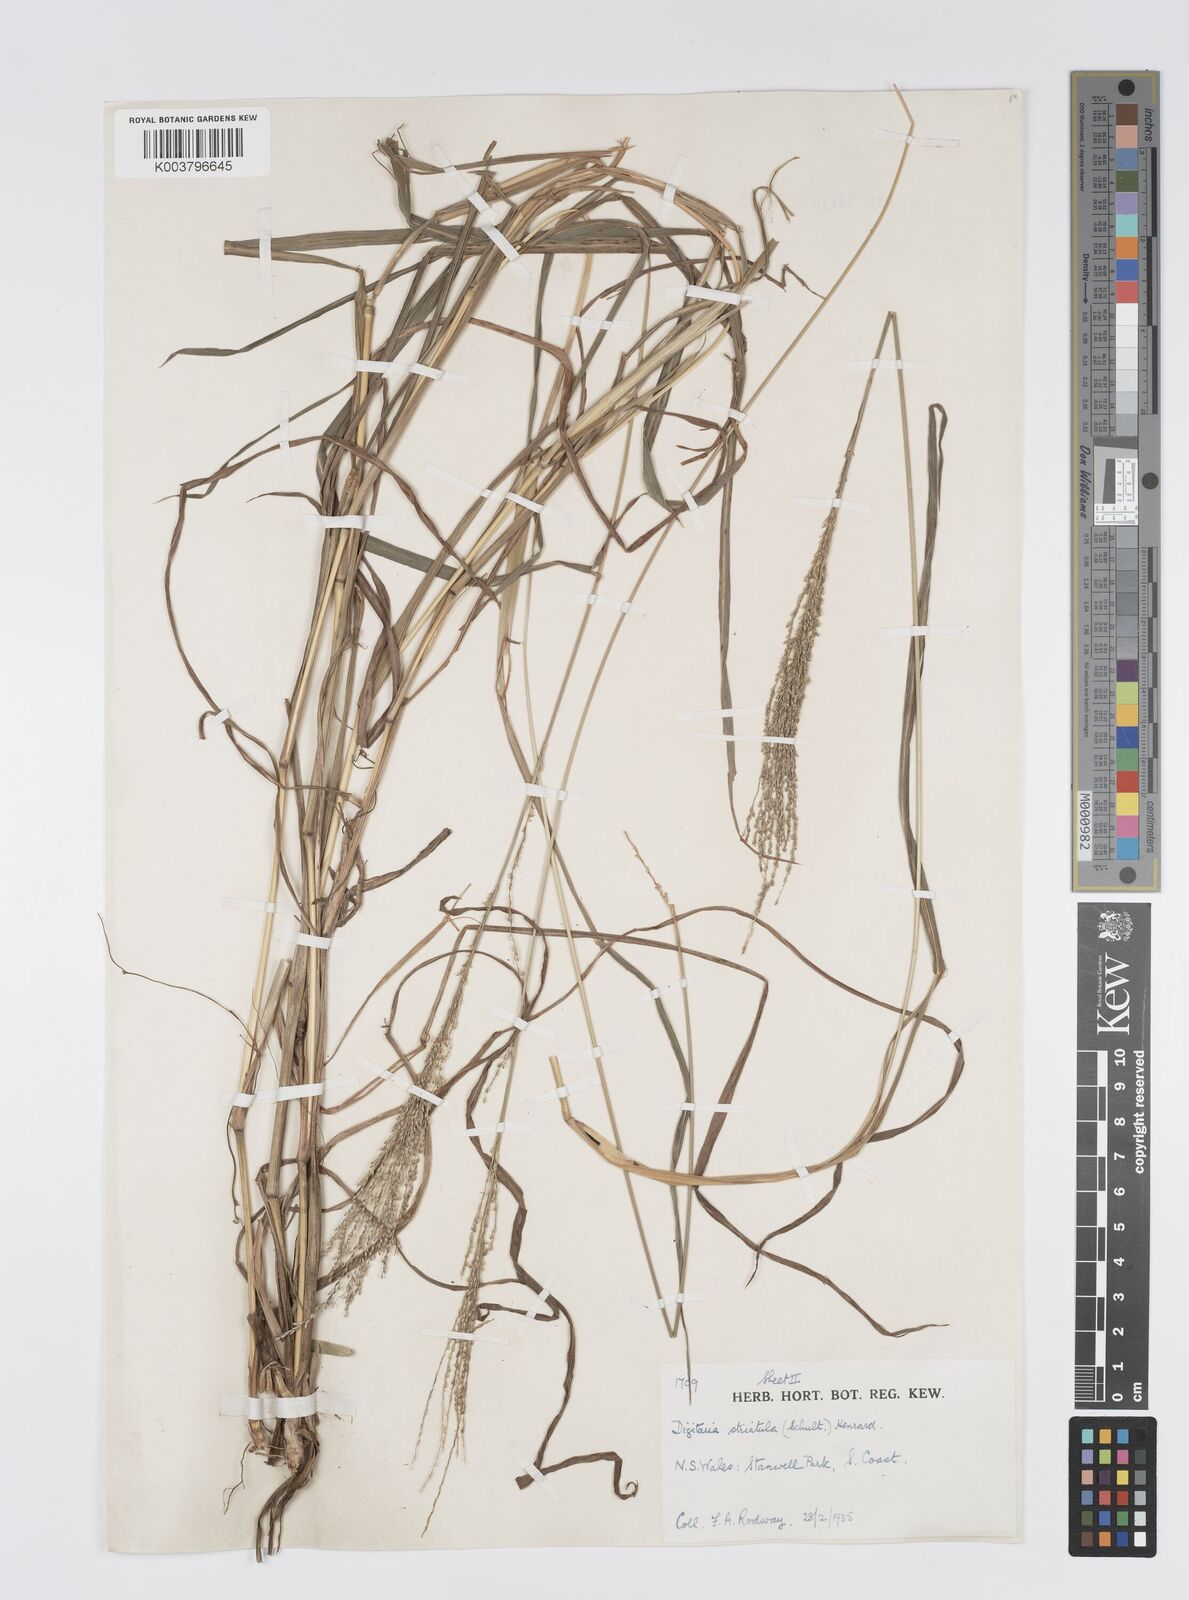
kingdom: Plantae
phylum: Tracheophyta
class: Liliopsida
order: Poales
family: Poaceae
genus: Digitaria
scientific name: Digitaria parviflora
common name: Small-flower finger grass
